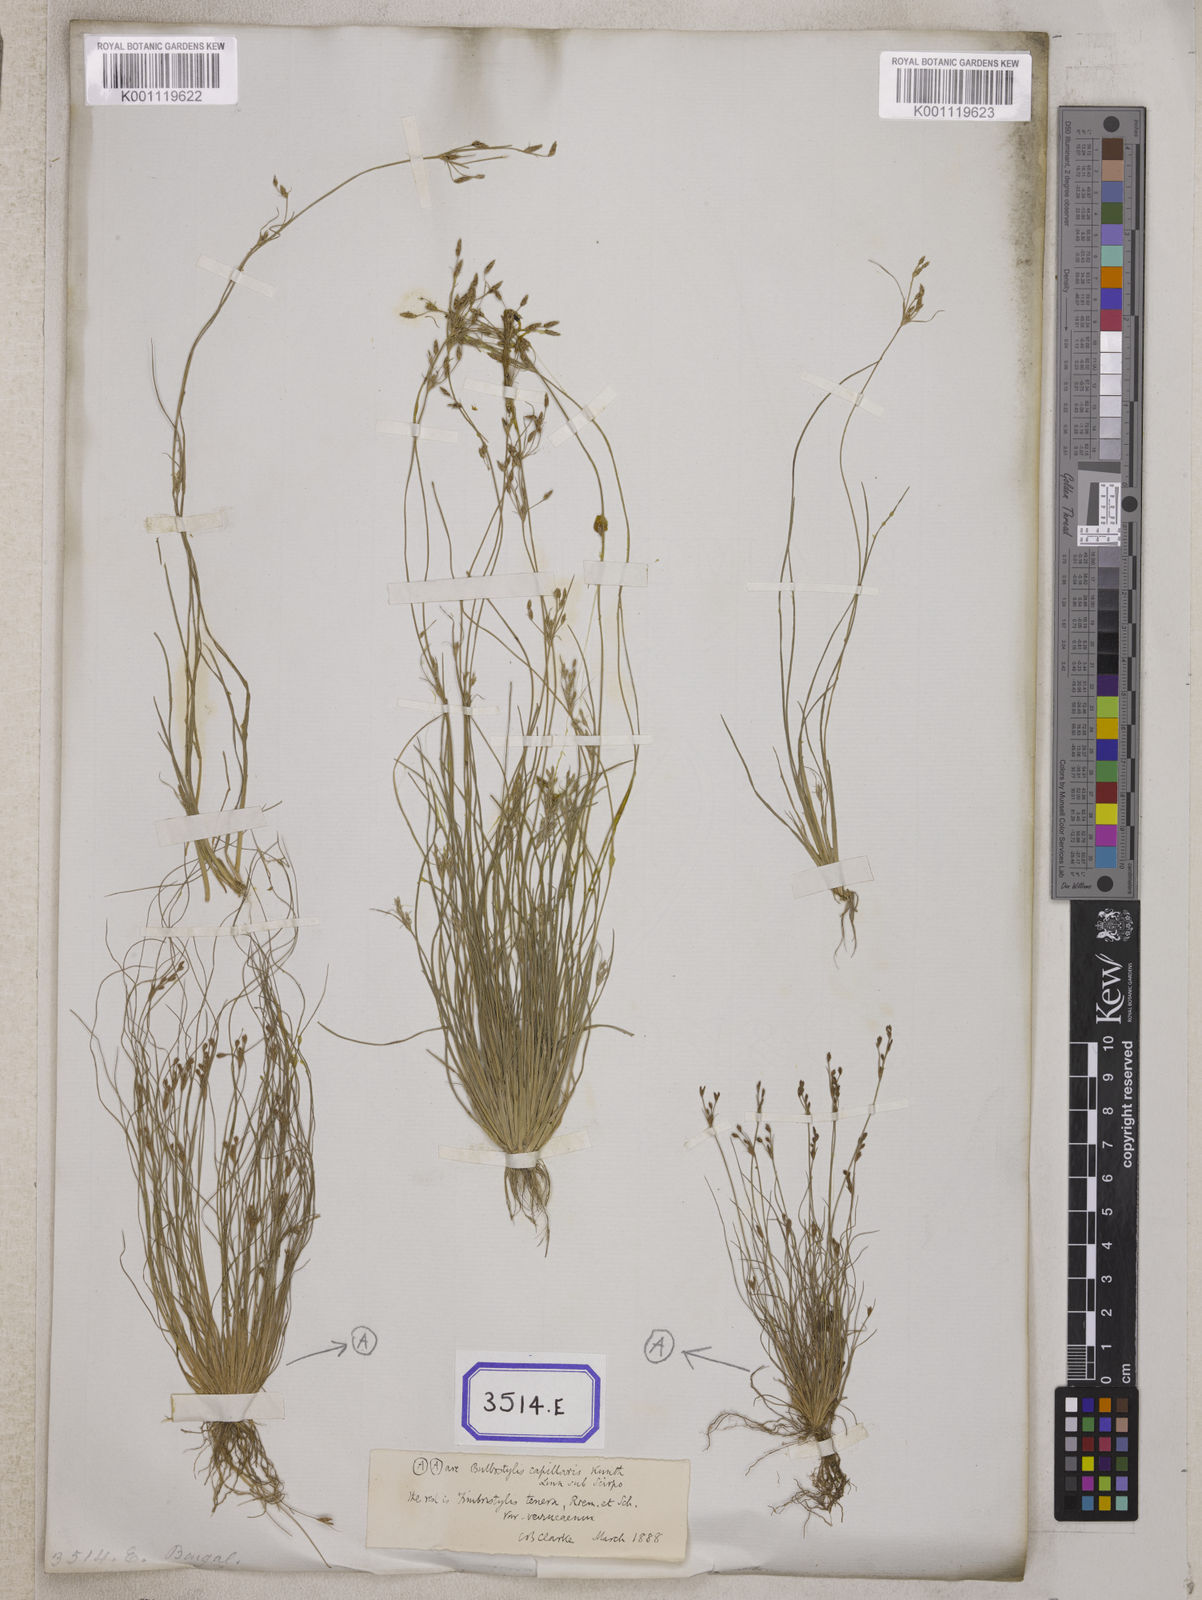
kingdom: Plantae
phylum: Tracheophyta
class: Liliopsida
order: Poales
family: Cyperaceae
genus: Fimbristylis
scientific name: Fimbristylis
